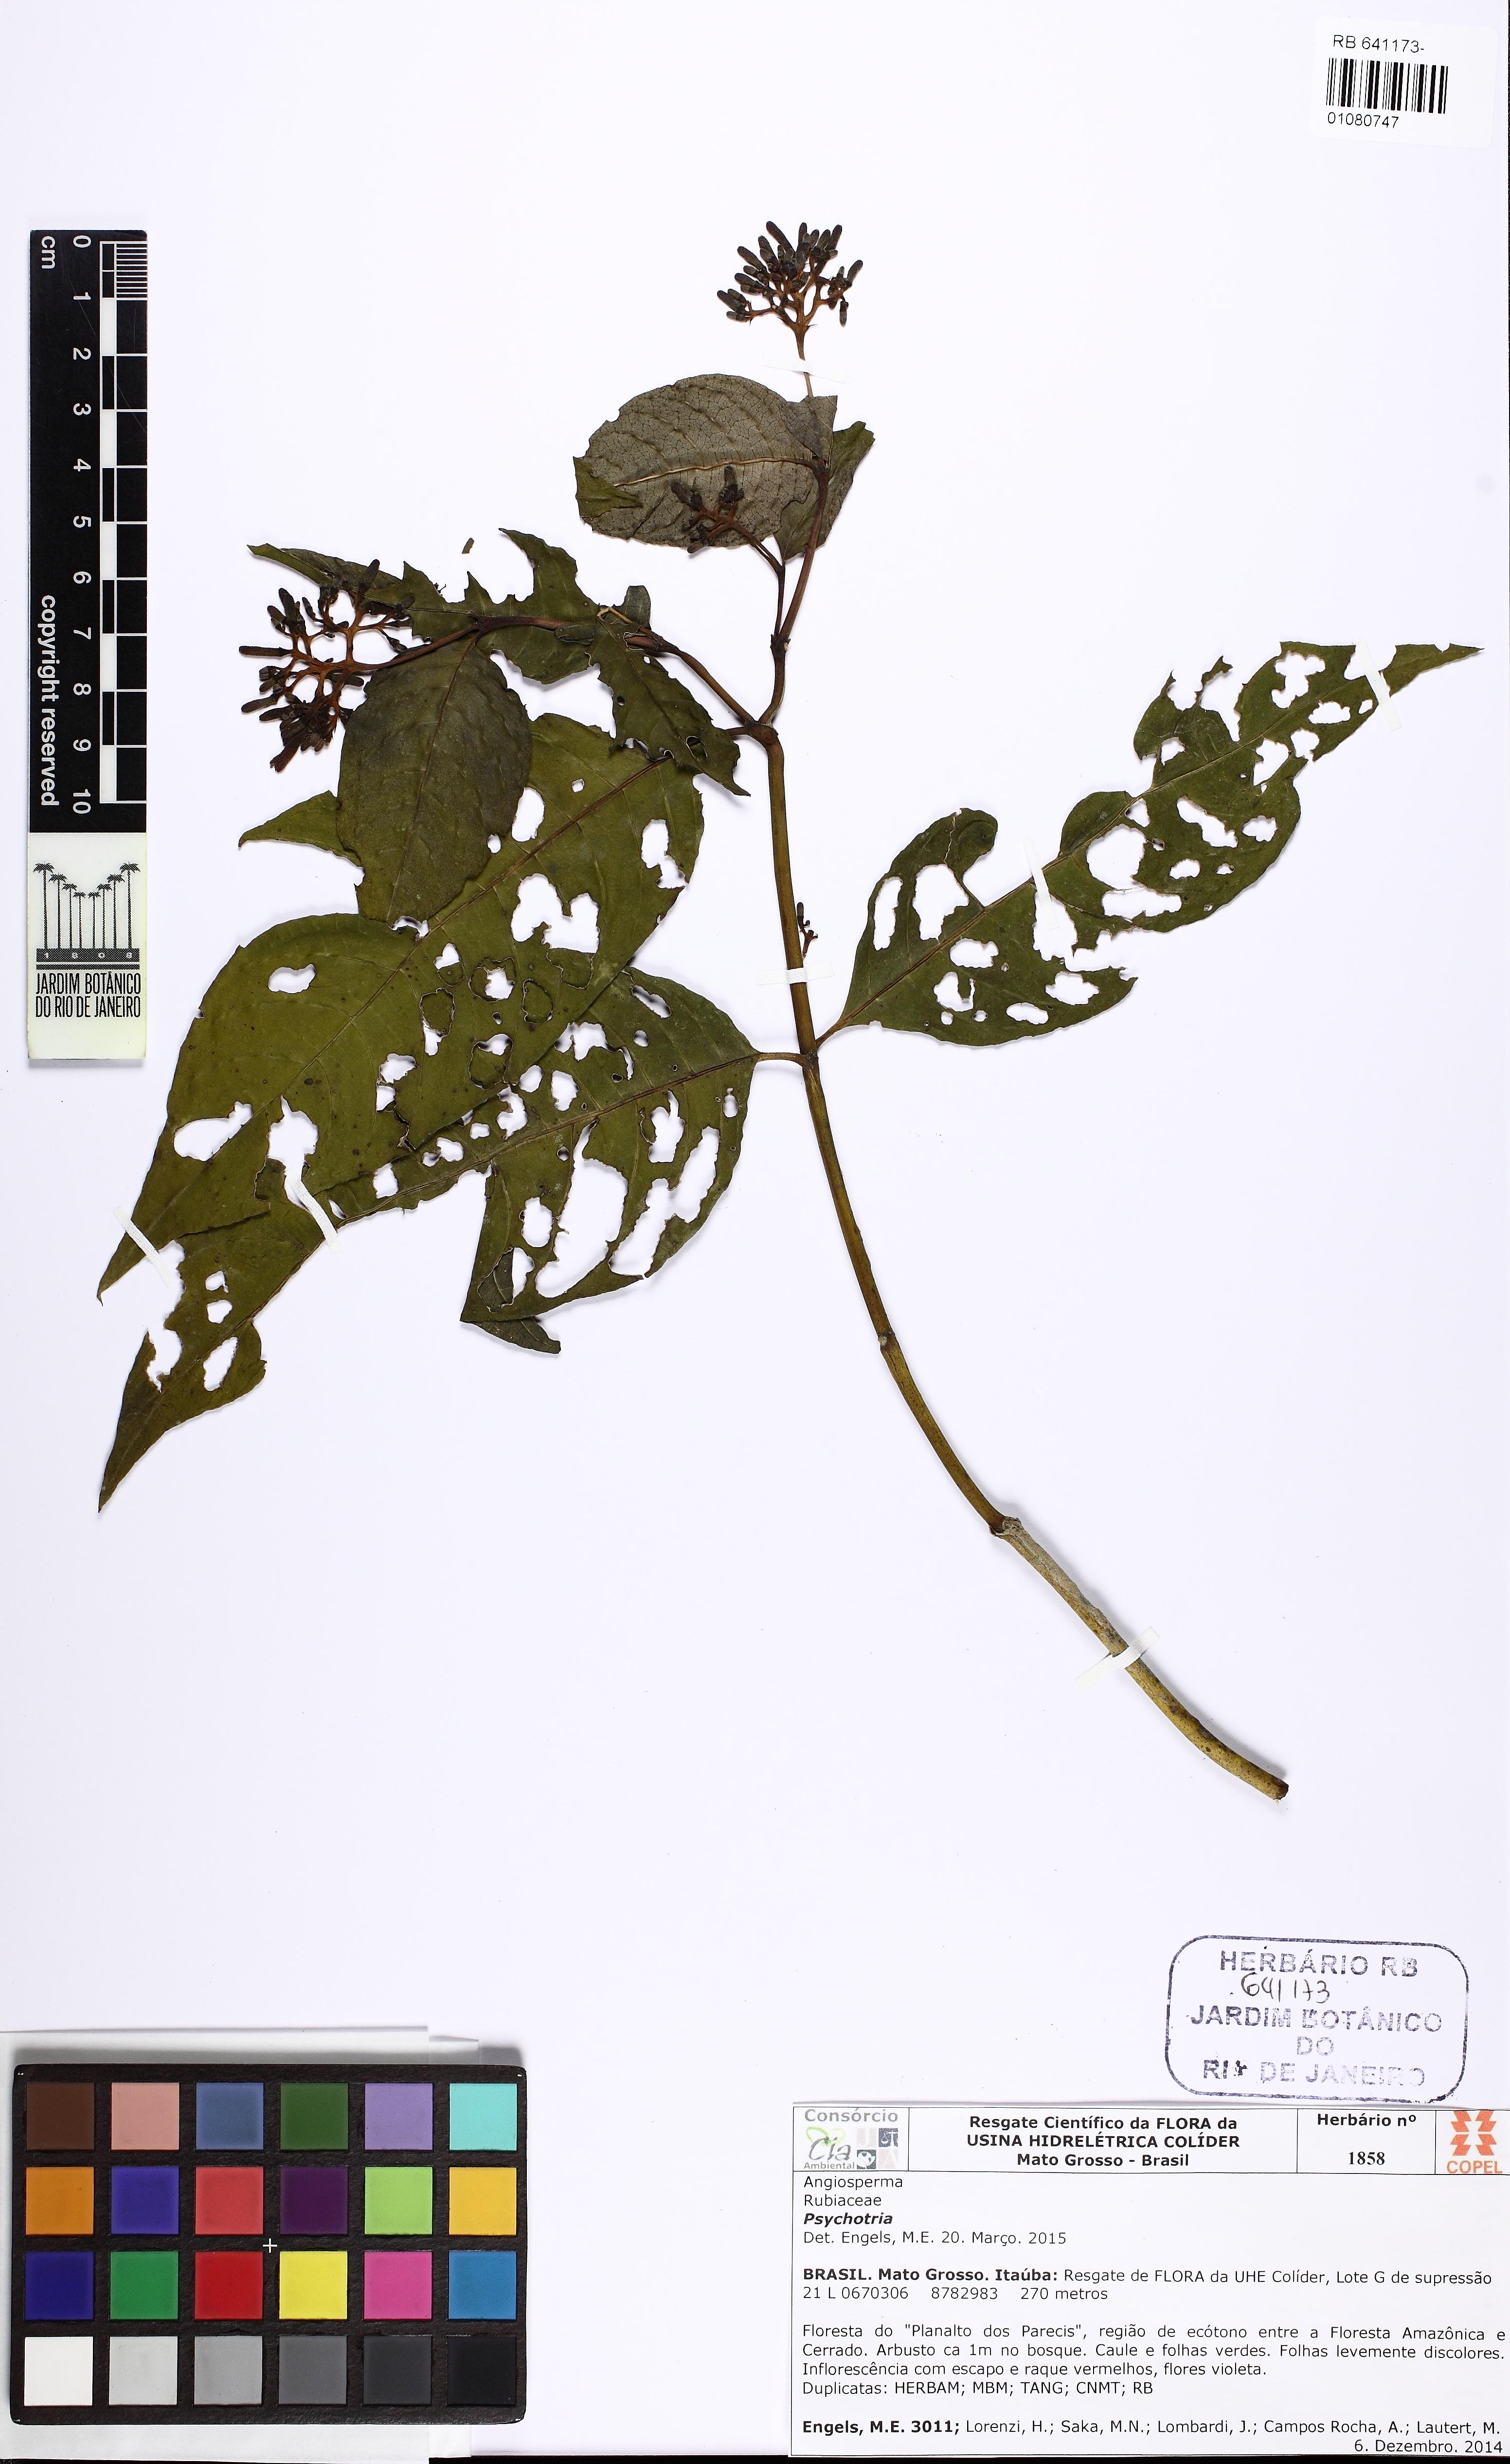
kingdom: Plantae
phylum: Tracheophyta
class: Magnoliopsida
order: Gentianales
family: Rubiaceae
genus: Psychotria
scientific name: Psychotria
